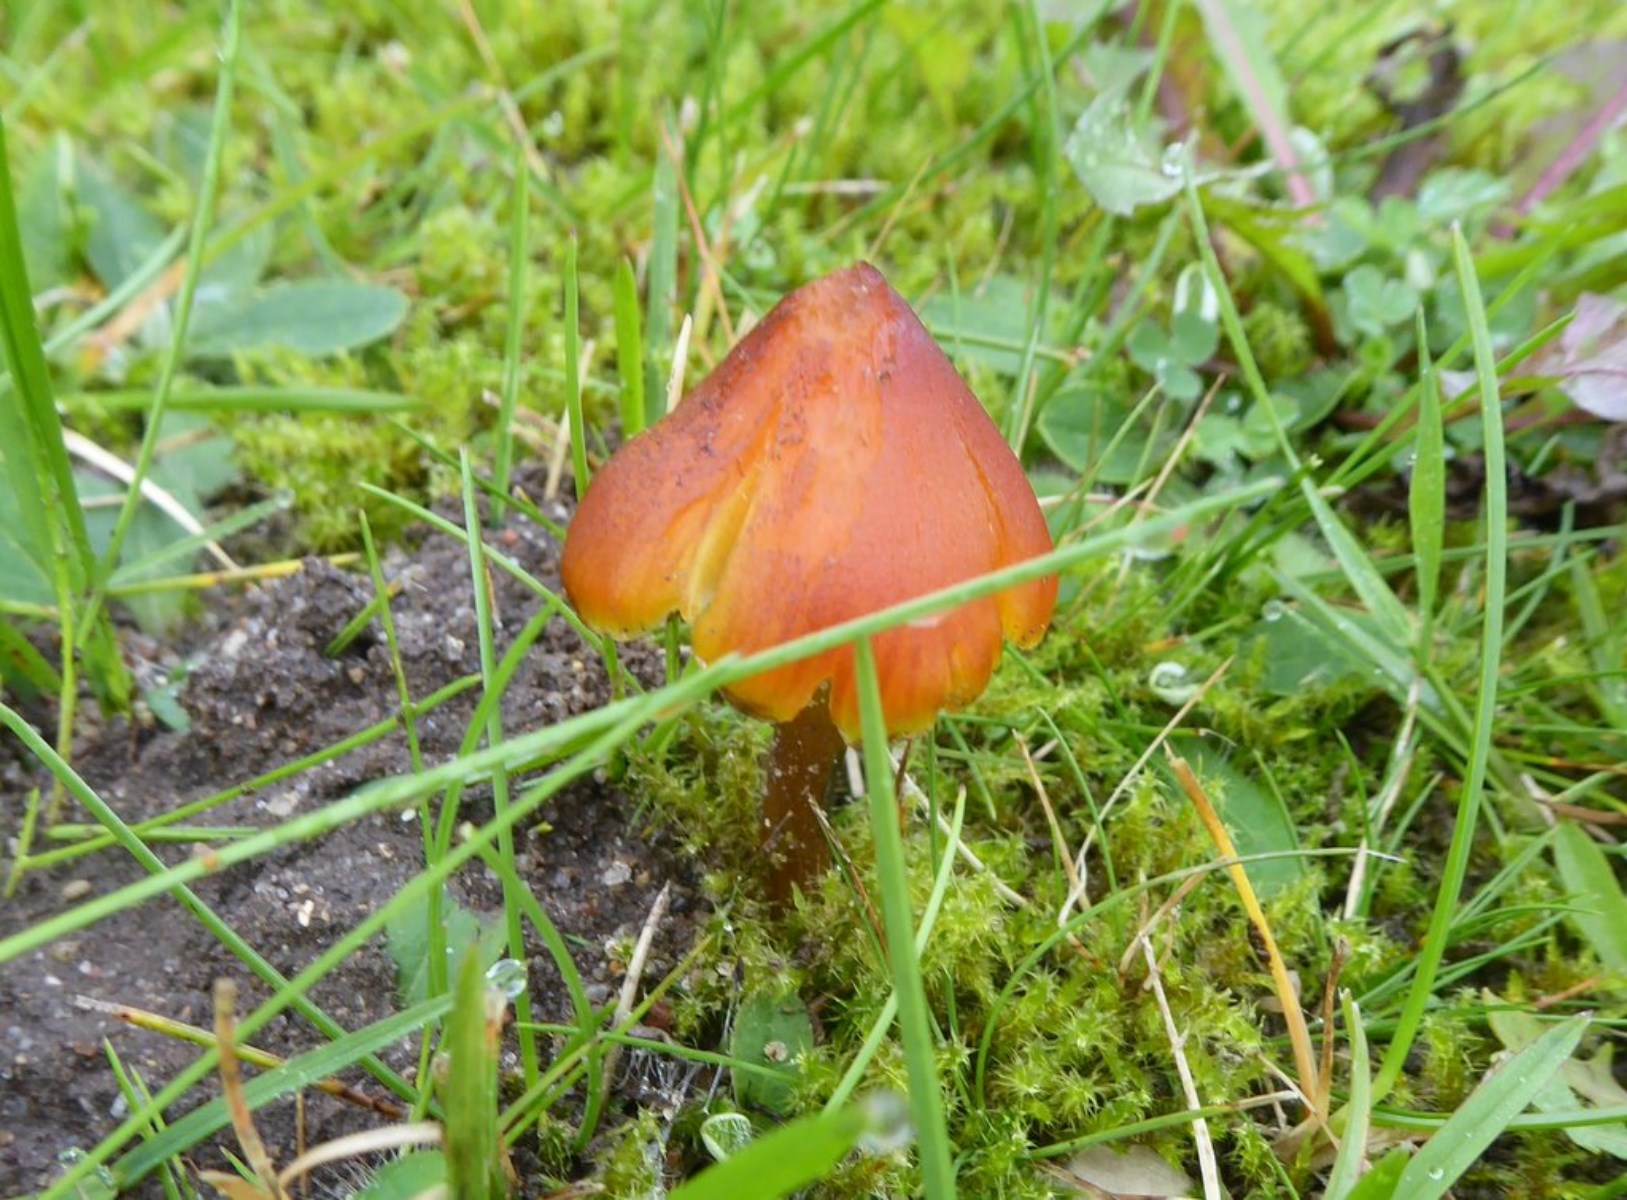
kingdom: Fungi
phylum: Basidiomycota
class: Agaricomycetes
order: Agaricales
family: Hygrophoraceae
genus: Hygrocybe
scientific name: Hygrocybe conica
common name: kegle-vokshat
